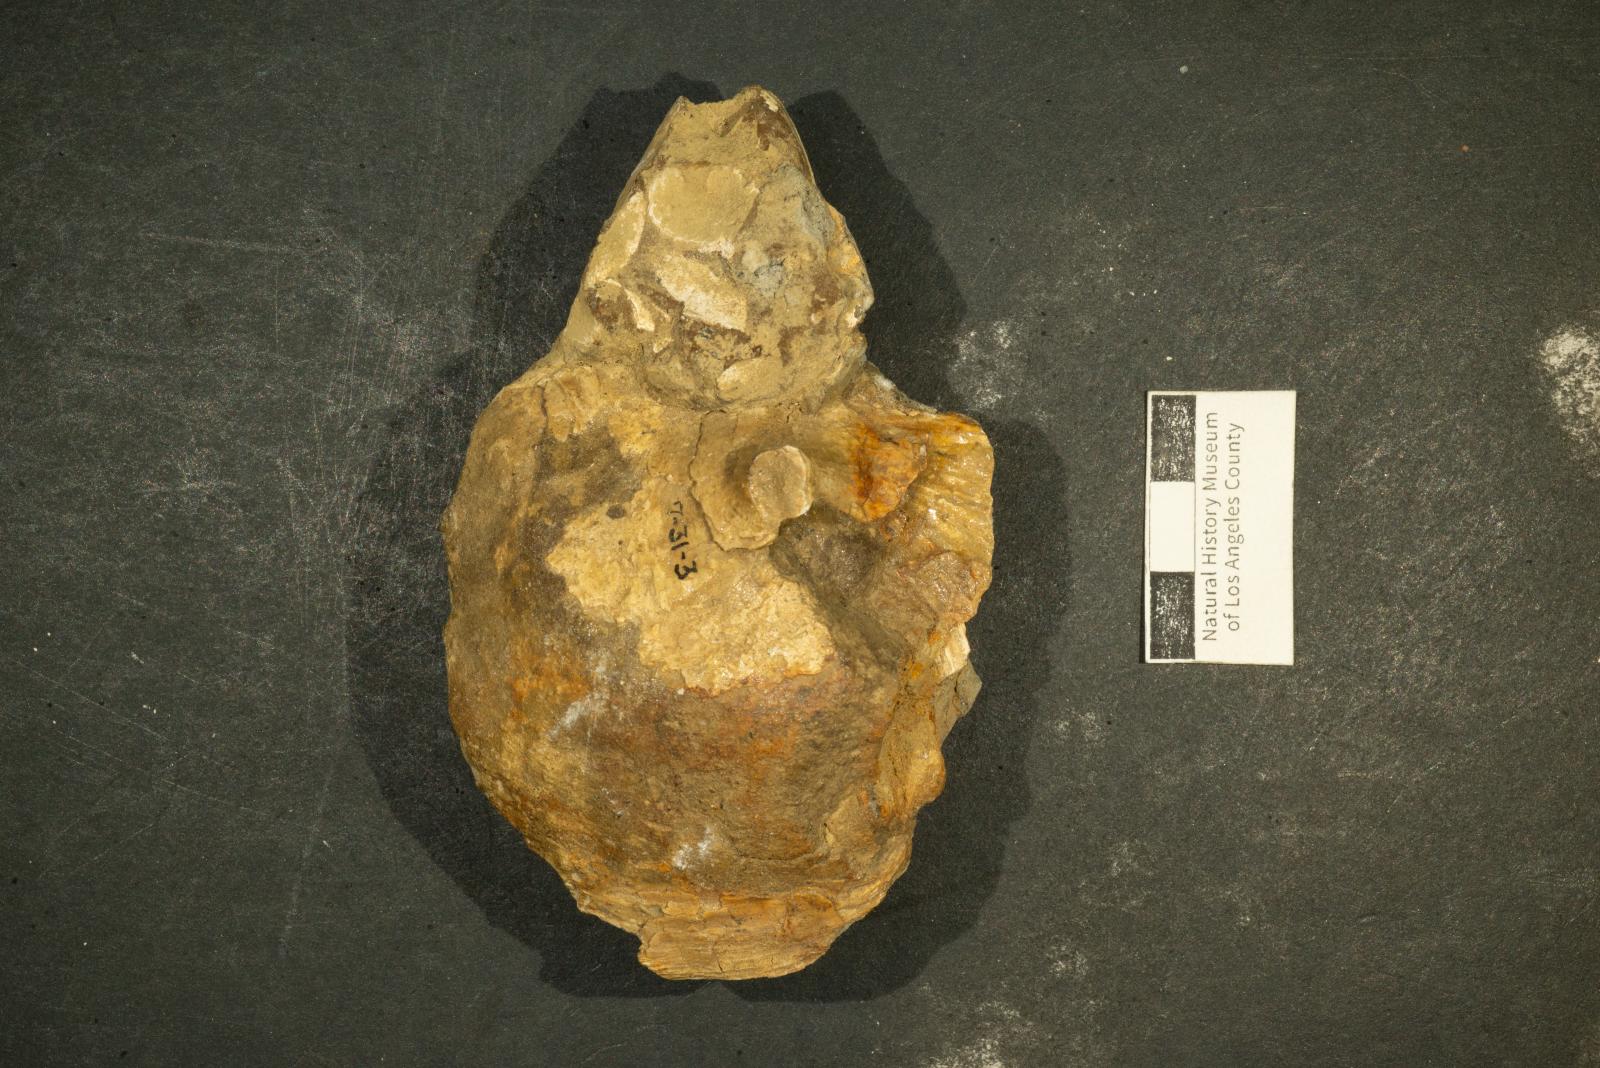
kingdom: Animalia
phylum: Mollusca
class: Gastropoda
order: Littorinimorpha
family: Xenophoridae
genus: Xenophora
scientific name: Xenophora willisi
